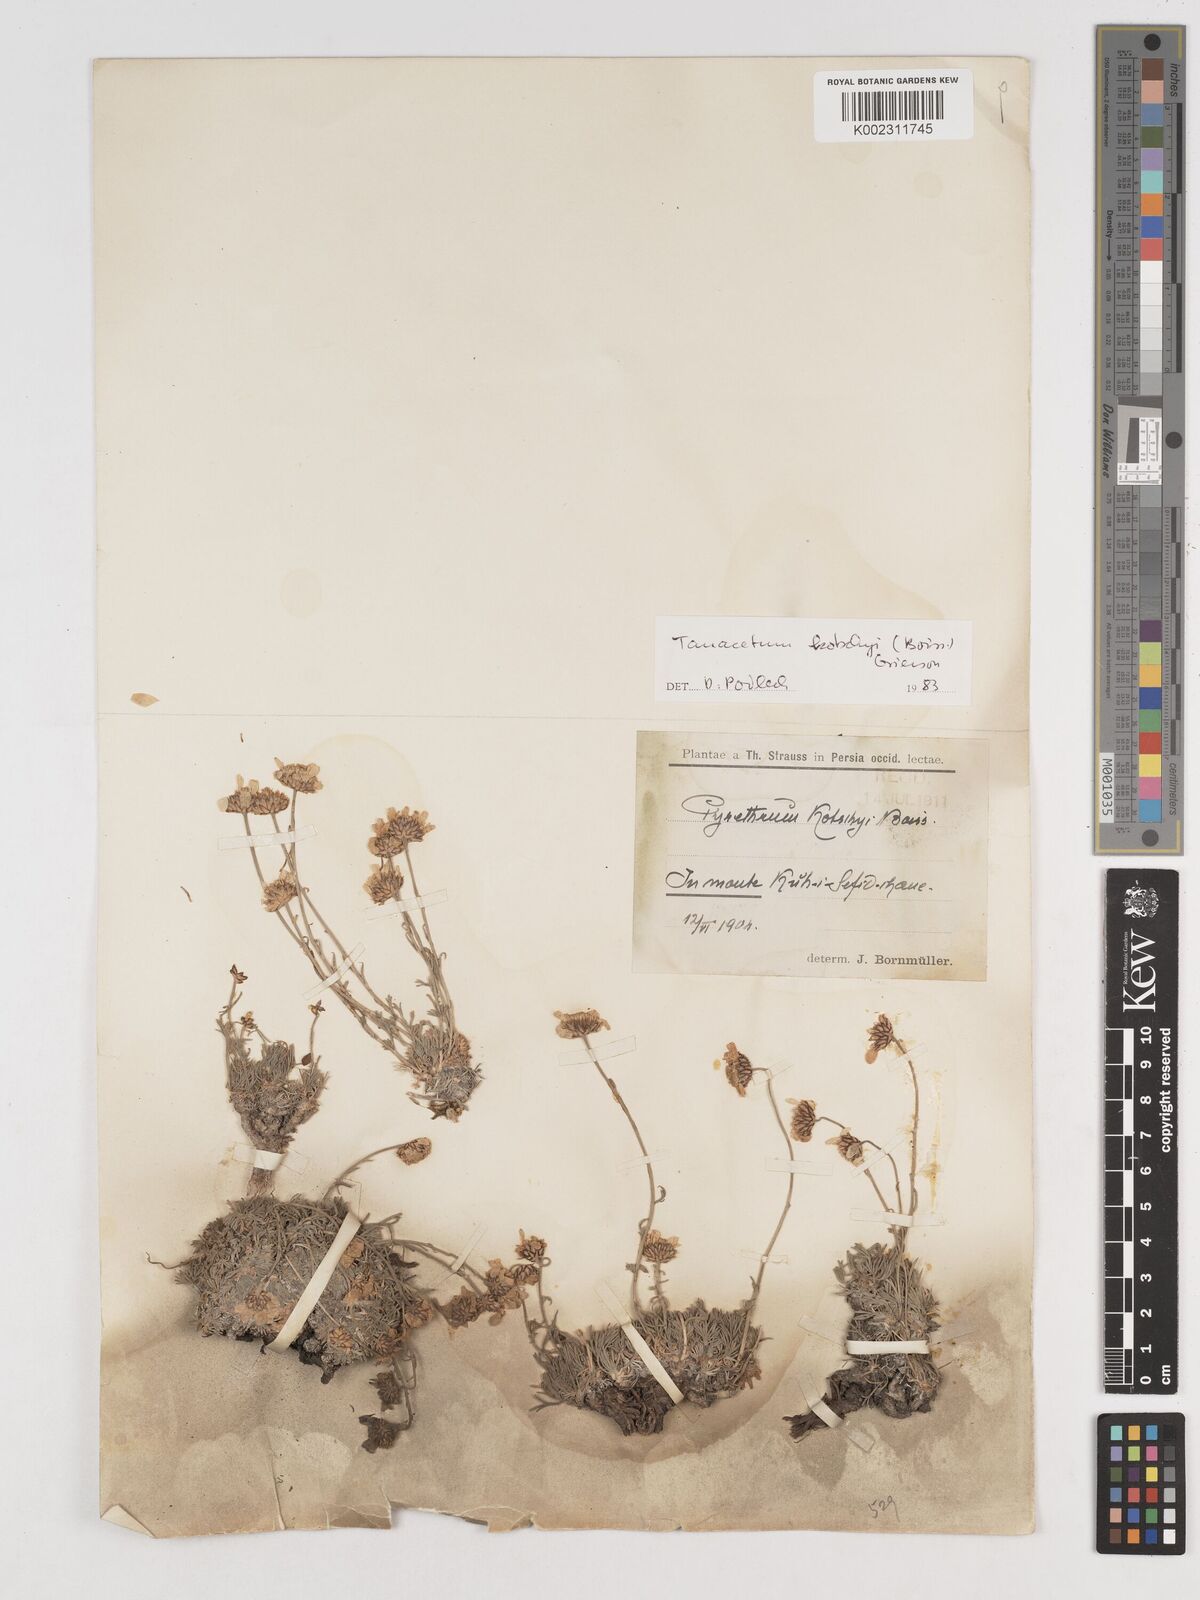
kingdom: Plantae
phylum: Tracheophyta
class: Magnoliopsida
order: Asterales
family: Asteraceae
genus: Tanacetum
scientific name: Tanacetum polycephalum
